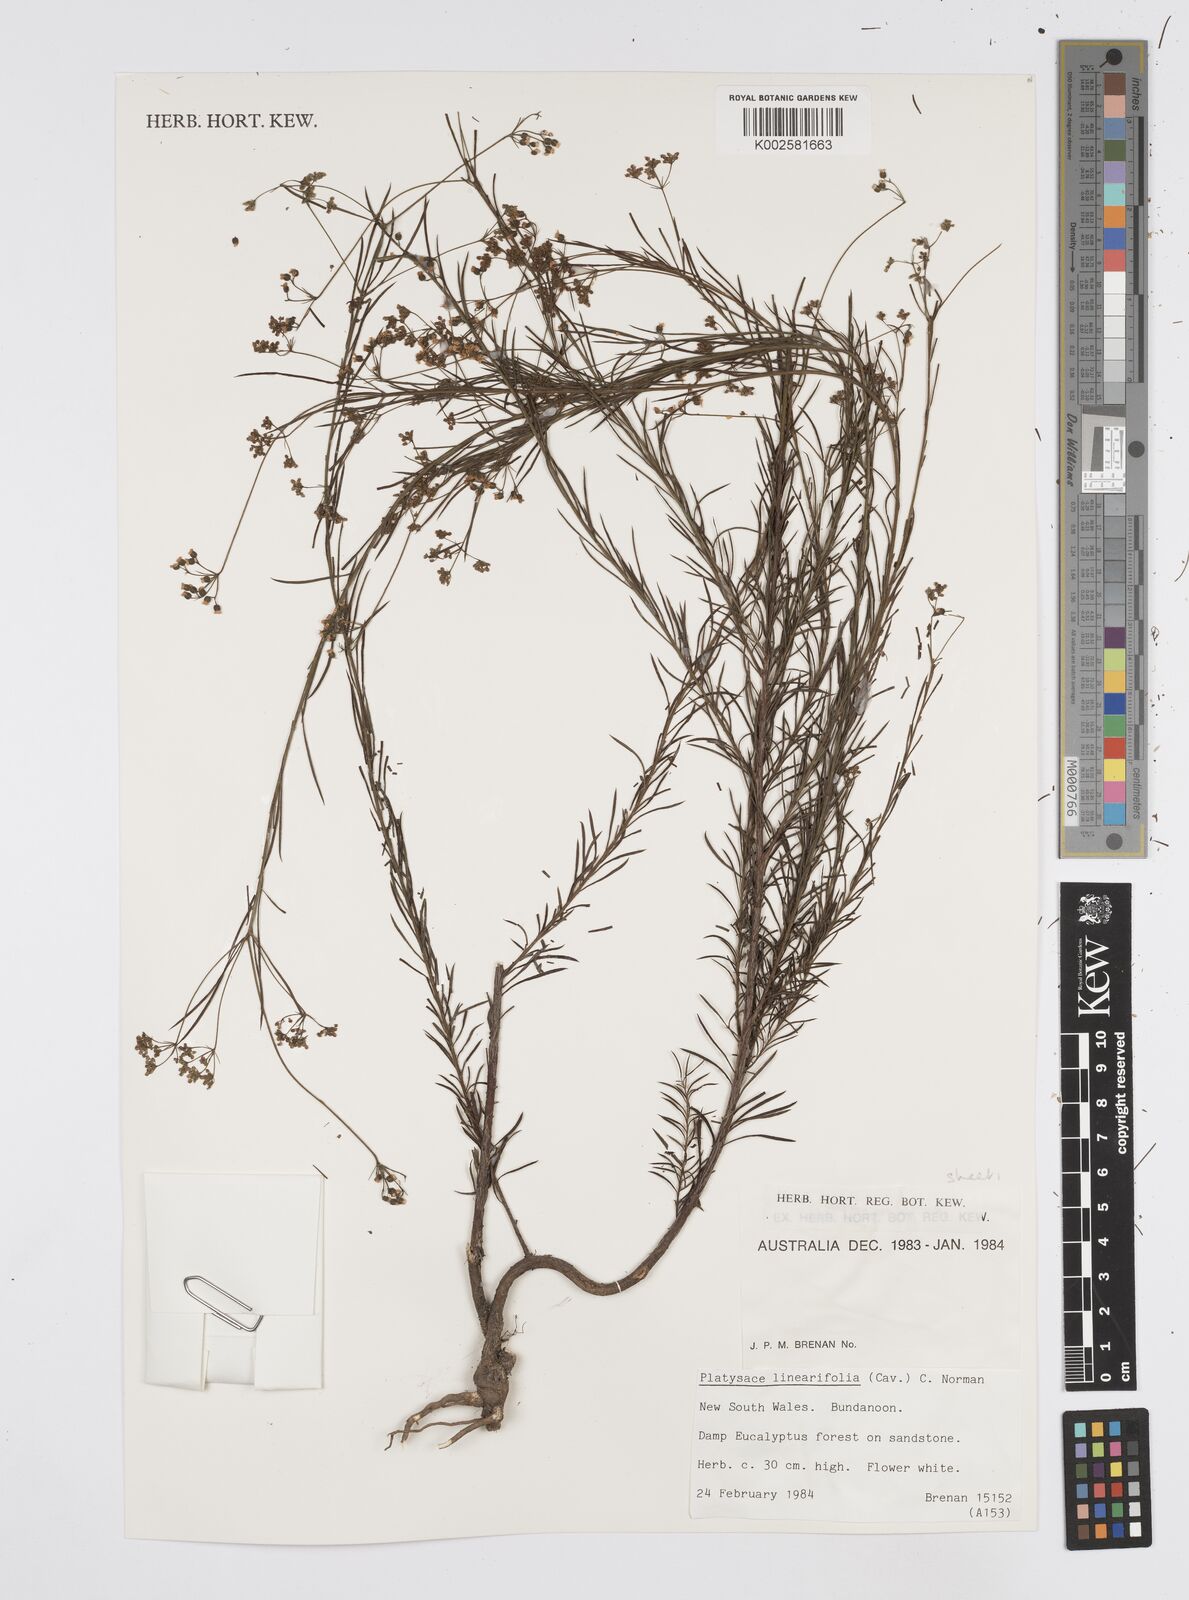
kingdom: Plantae
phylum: Tracheophyta
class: Magnoliopsida
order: Apiales
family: Apiaceae
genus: Platysace
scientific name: Platysace linearifolia
